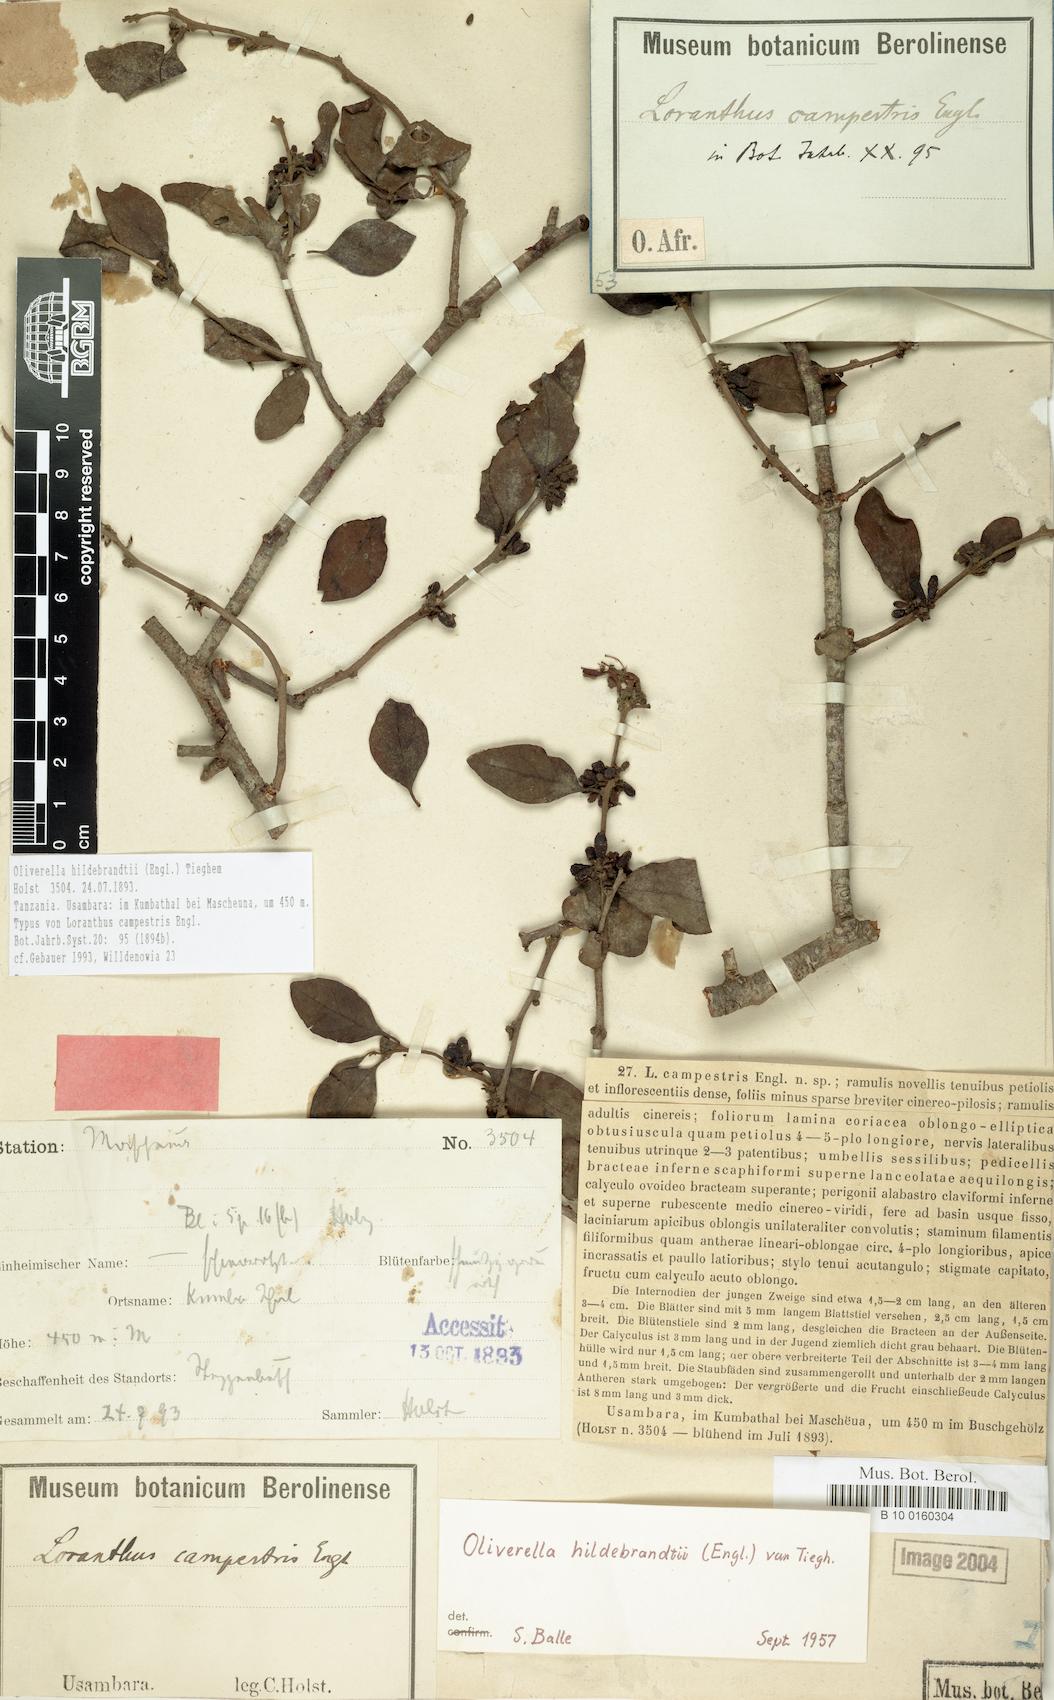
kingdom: Plantae
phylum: Tracheophyta
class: Magnoliopsida
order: Santalales
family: Loranthaceae
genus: Oliverella
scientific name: Oliverella hildebrandtii
